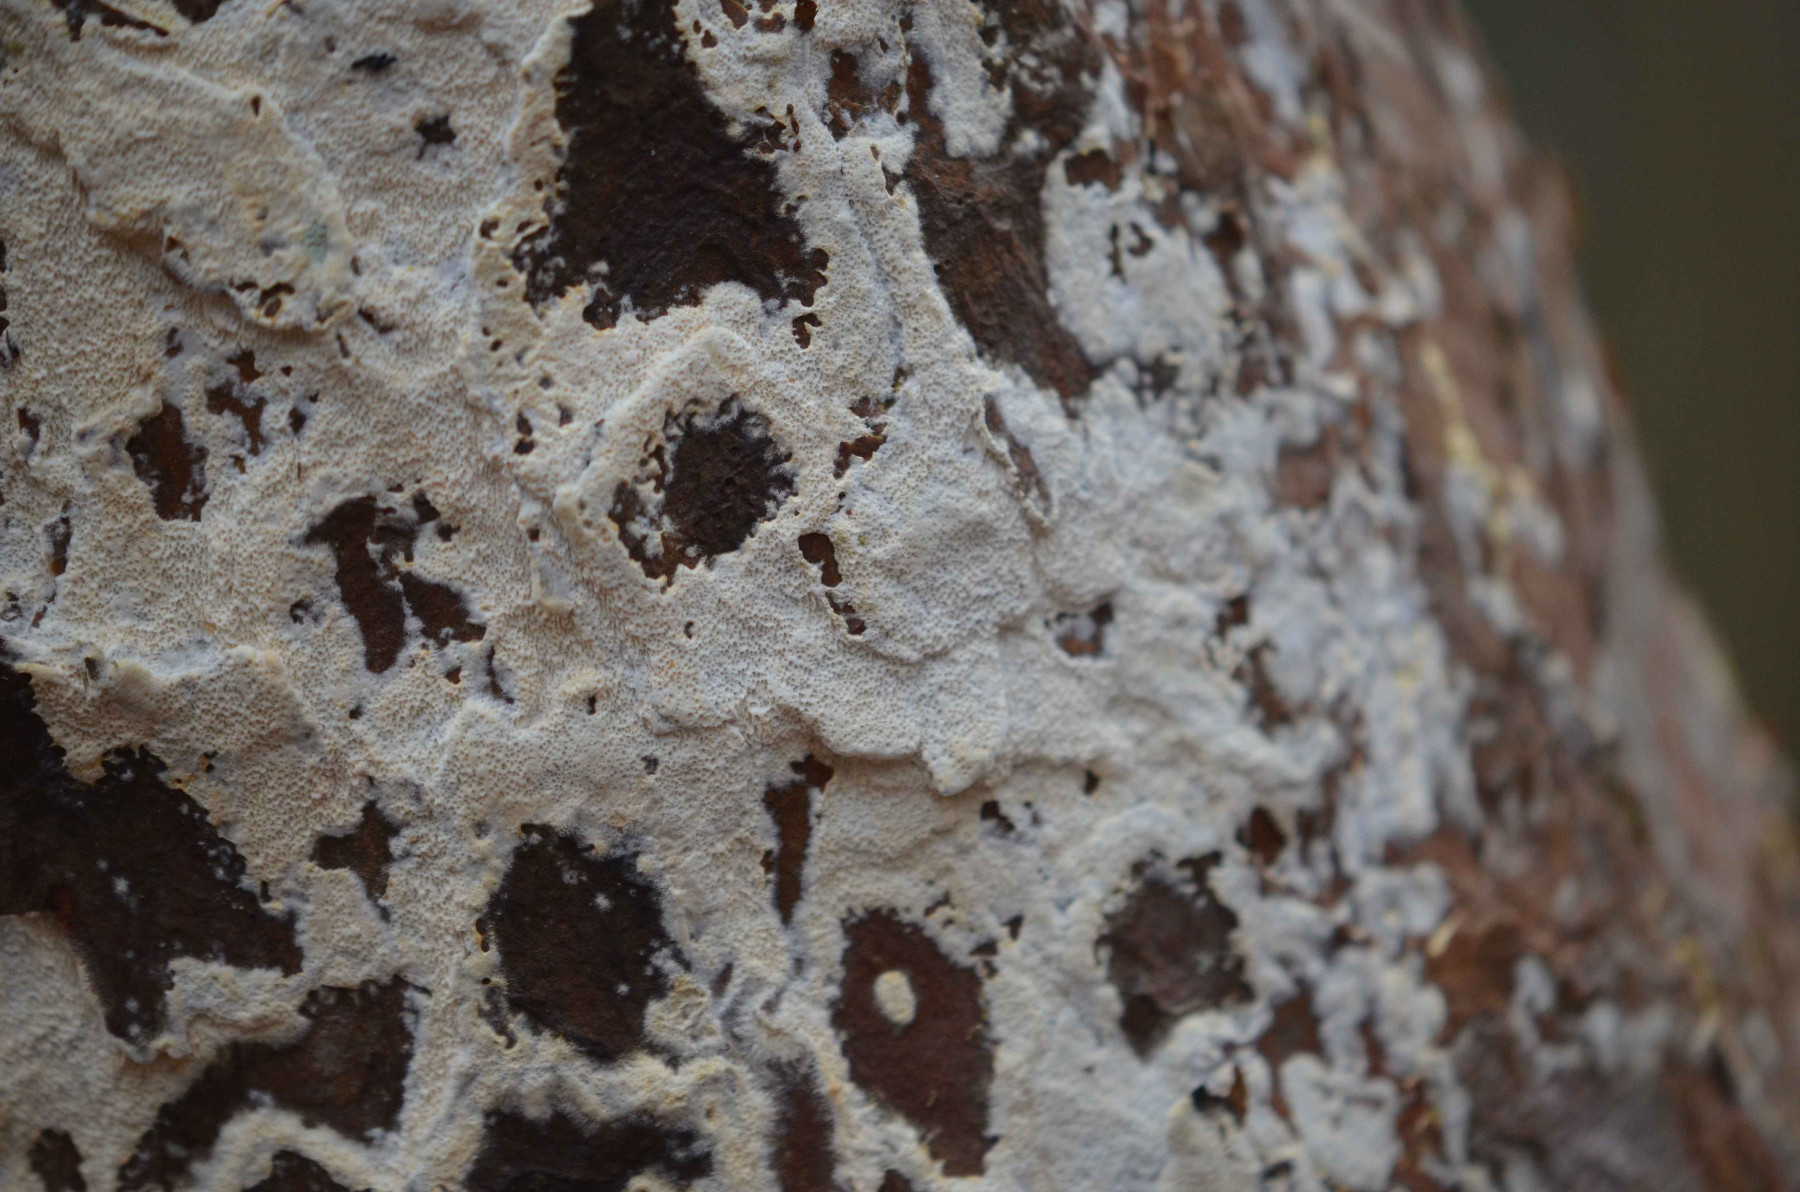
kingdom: Fungi
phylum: Basidiomycota
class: Agaricomycetes
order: Hymenochaetales
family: Schizoporaceae
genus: Xylodon
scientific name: Xylodon
